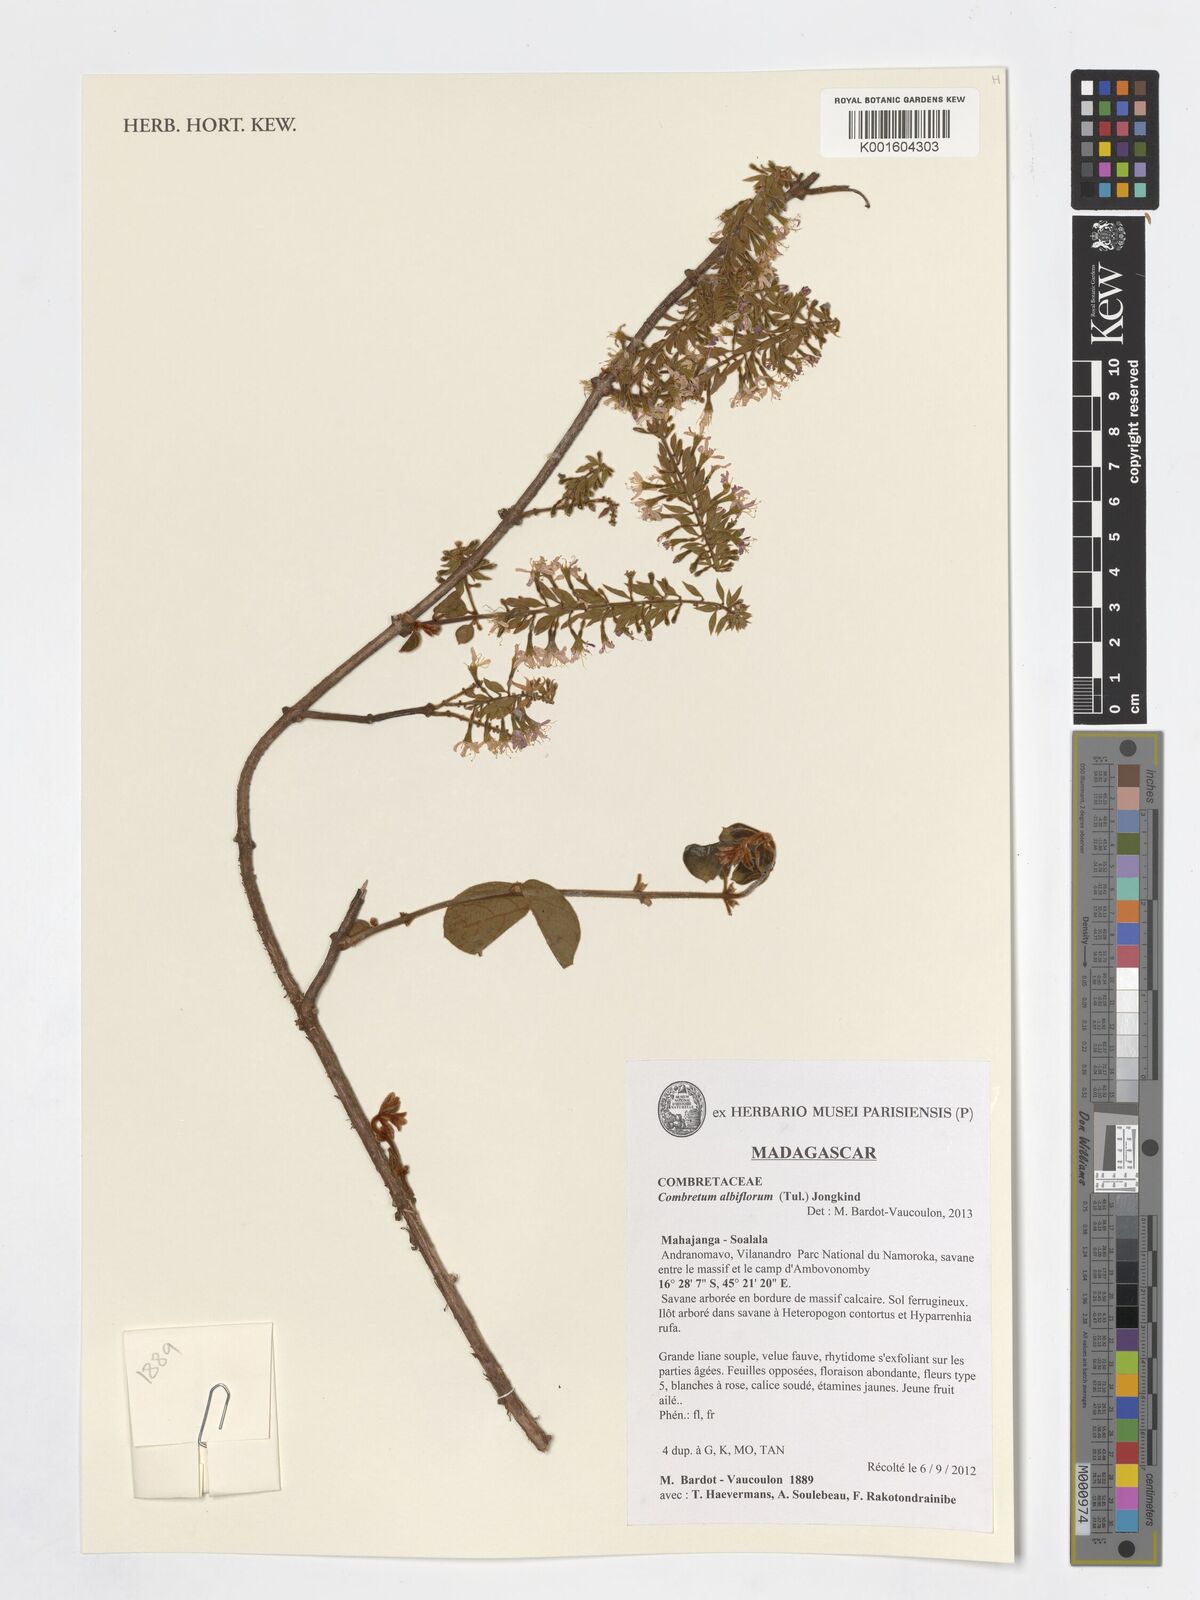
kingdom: Plantae
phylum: Tracheophyta
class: Magnoliopsida
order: Myrtales
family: Combretaceae
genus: Combretum
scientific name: Combretum albiflorum
